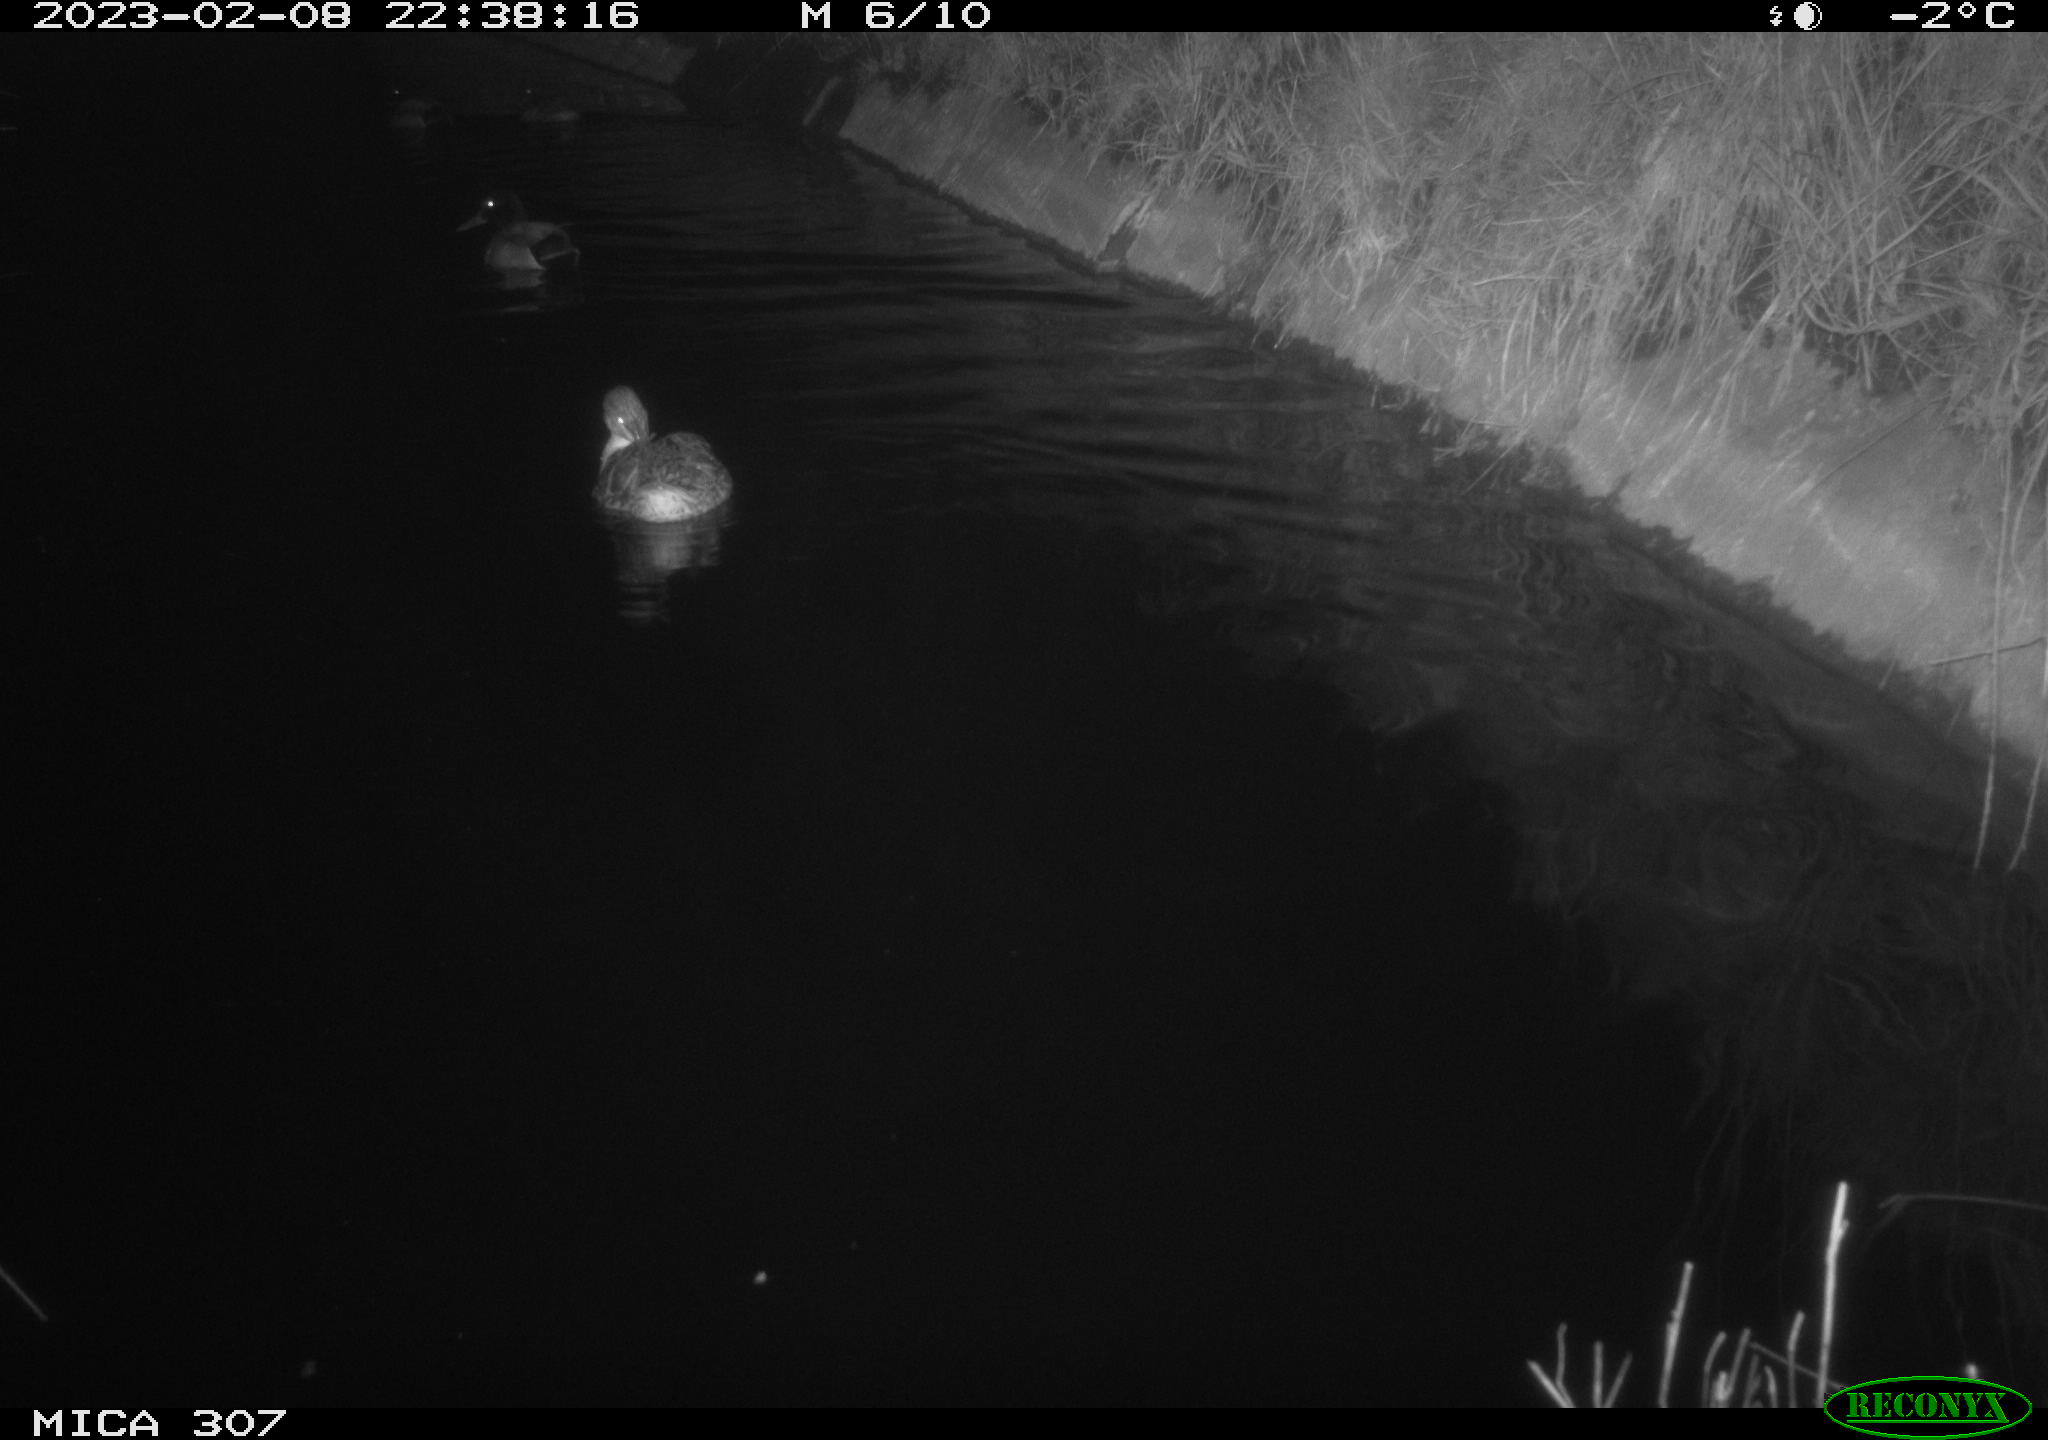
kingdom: Animalia
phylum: Chordata
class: Aves
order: Anseriformes
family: Anatidae
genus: Anas
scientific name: Anas
